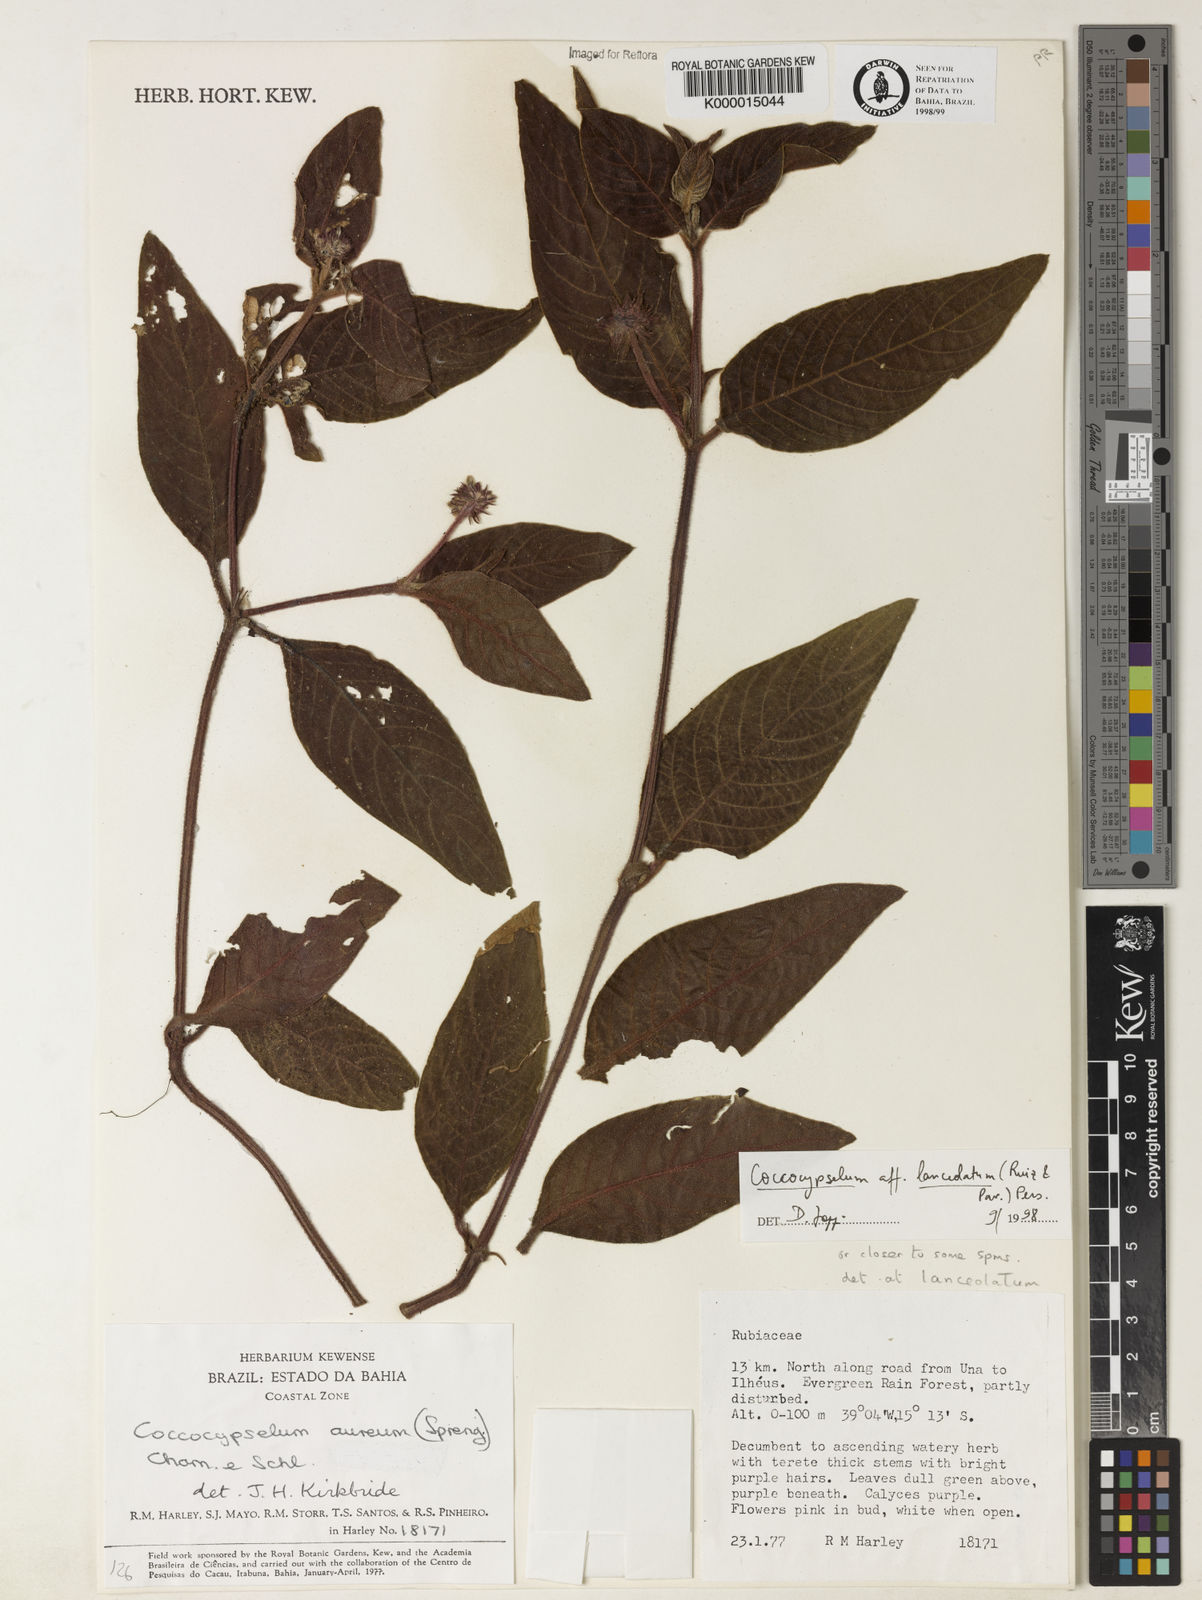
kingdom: Plantae
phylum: Tracheophyta
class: Magnoliopsida
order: Gentianales
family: Rubiaceae
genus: Coccocypselum
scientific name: Coccocypselum lanceolatum
